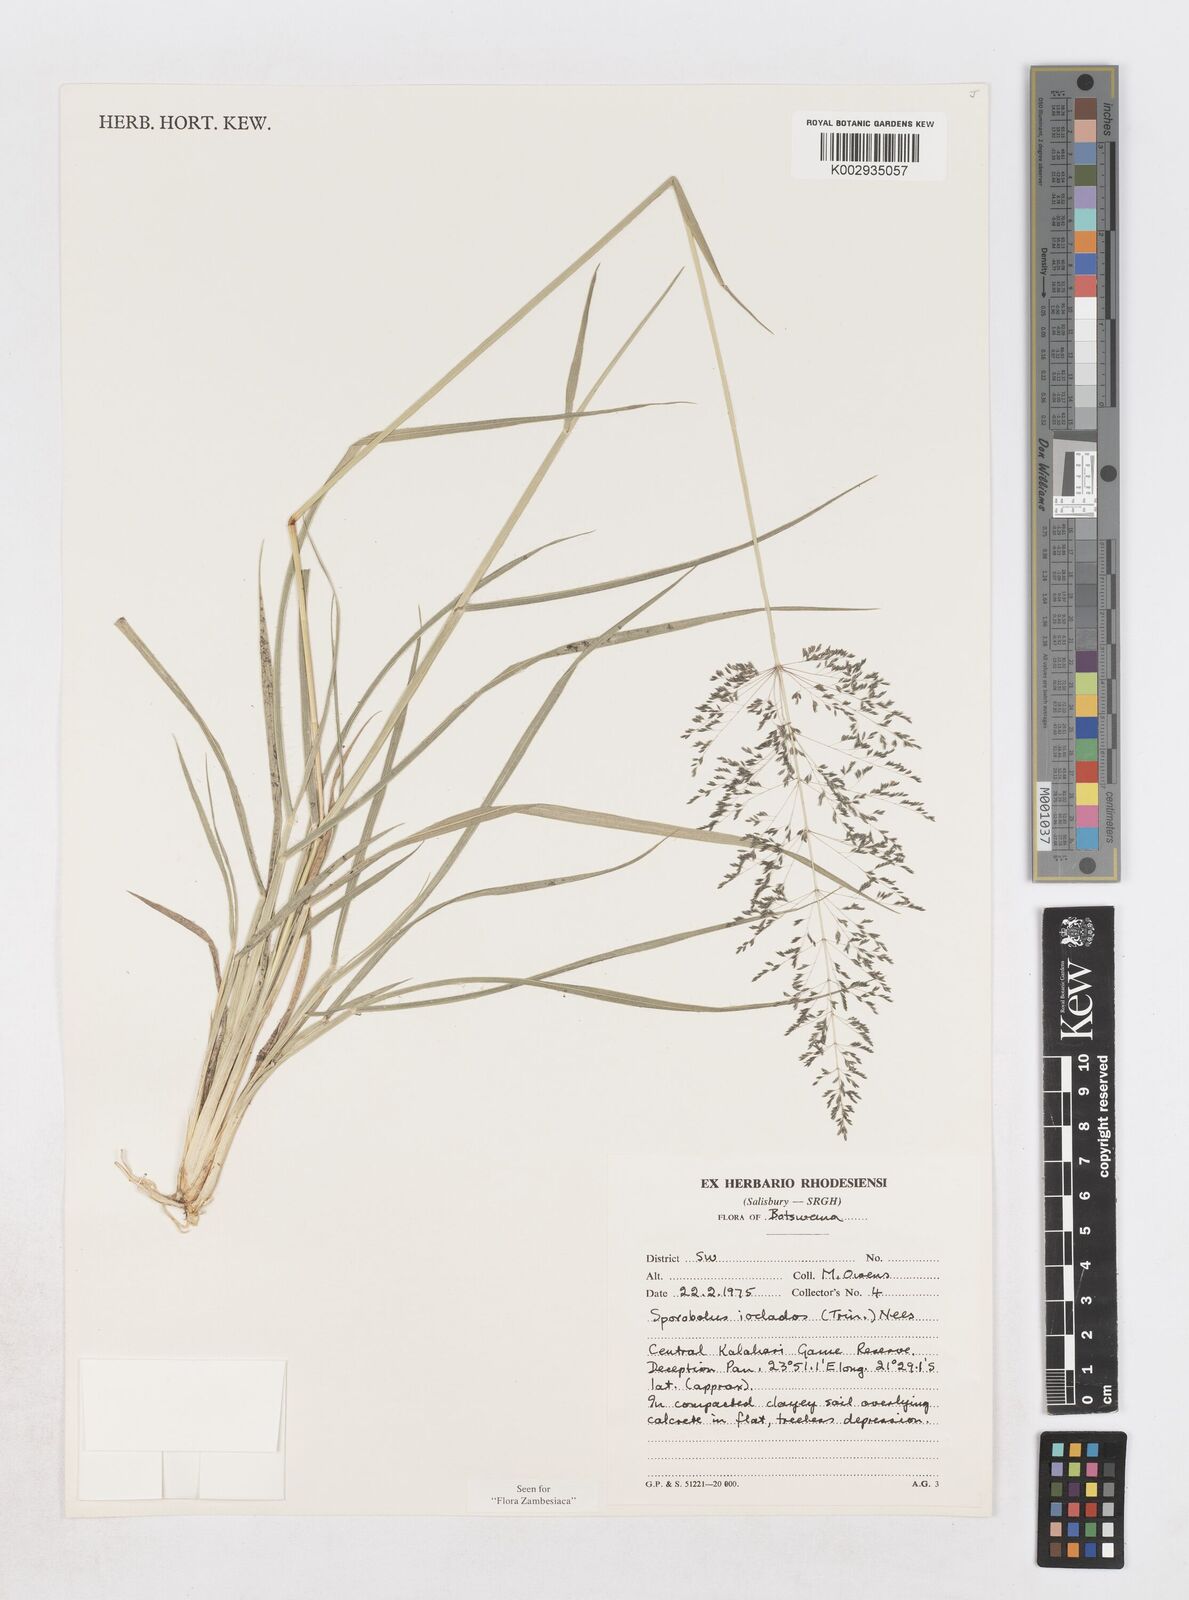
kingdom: Plantae
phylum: Tracheophyta
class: Liliopsida
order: Poales
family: Poaceae
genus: Sporobolus
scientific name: Sporobolus ioclados
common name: Pan dropseed
